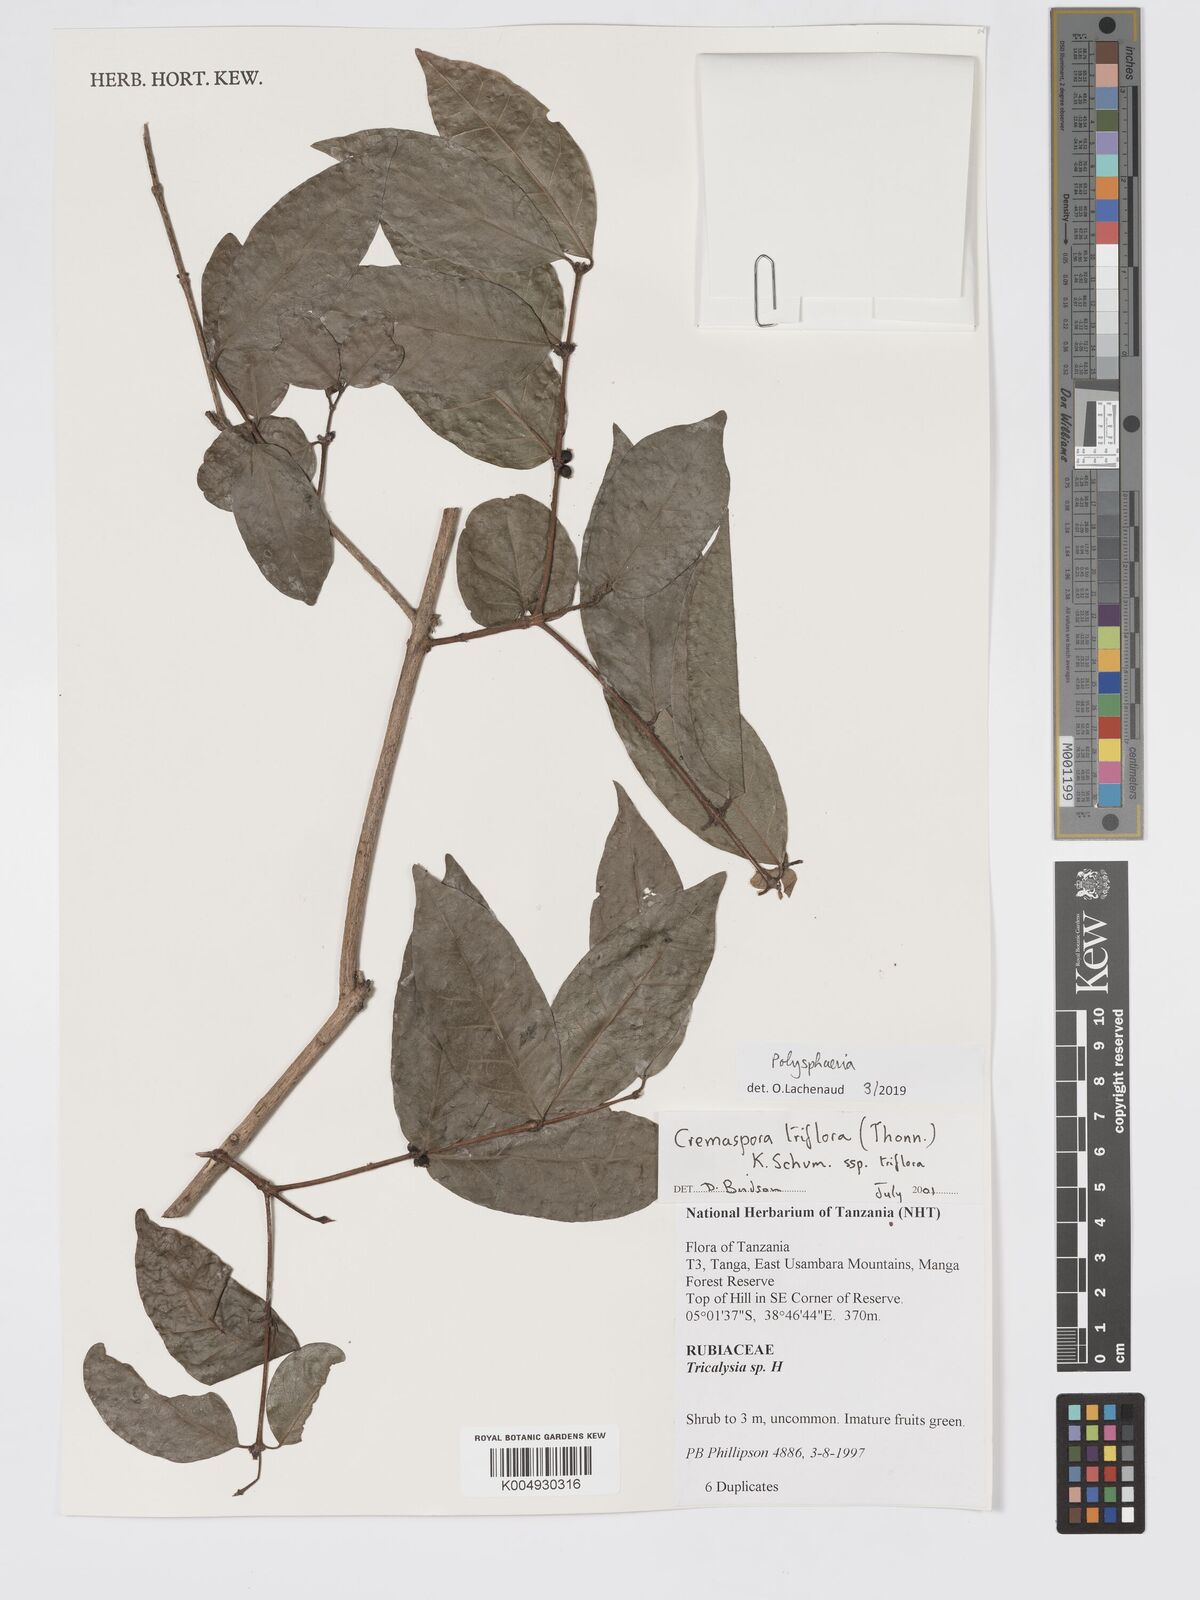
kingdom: Plantae
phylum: Tracheophyta
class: Magnoliopsida
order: Gentianales
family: Rubiaceae
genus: Polysphaeria
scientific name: Polysphaeria
